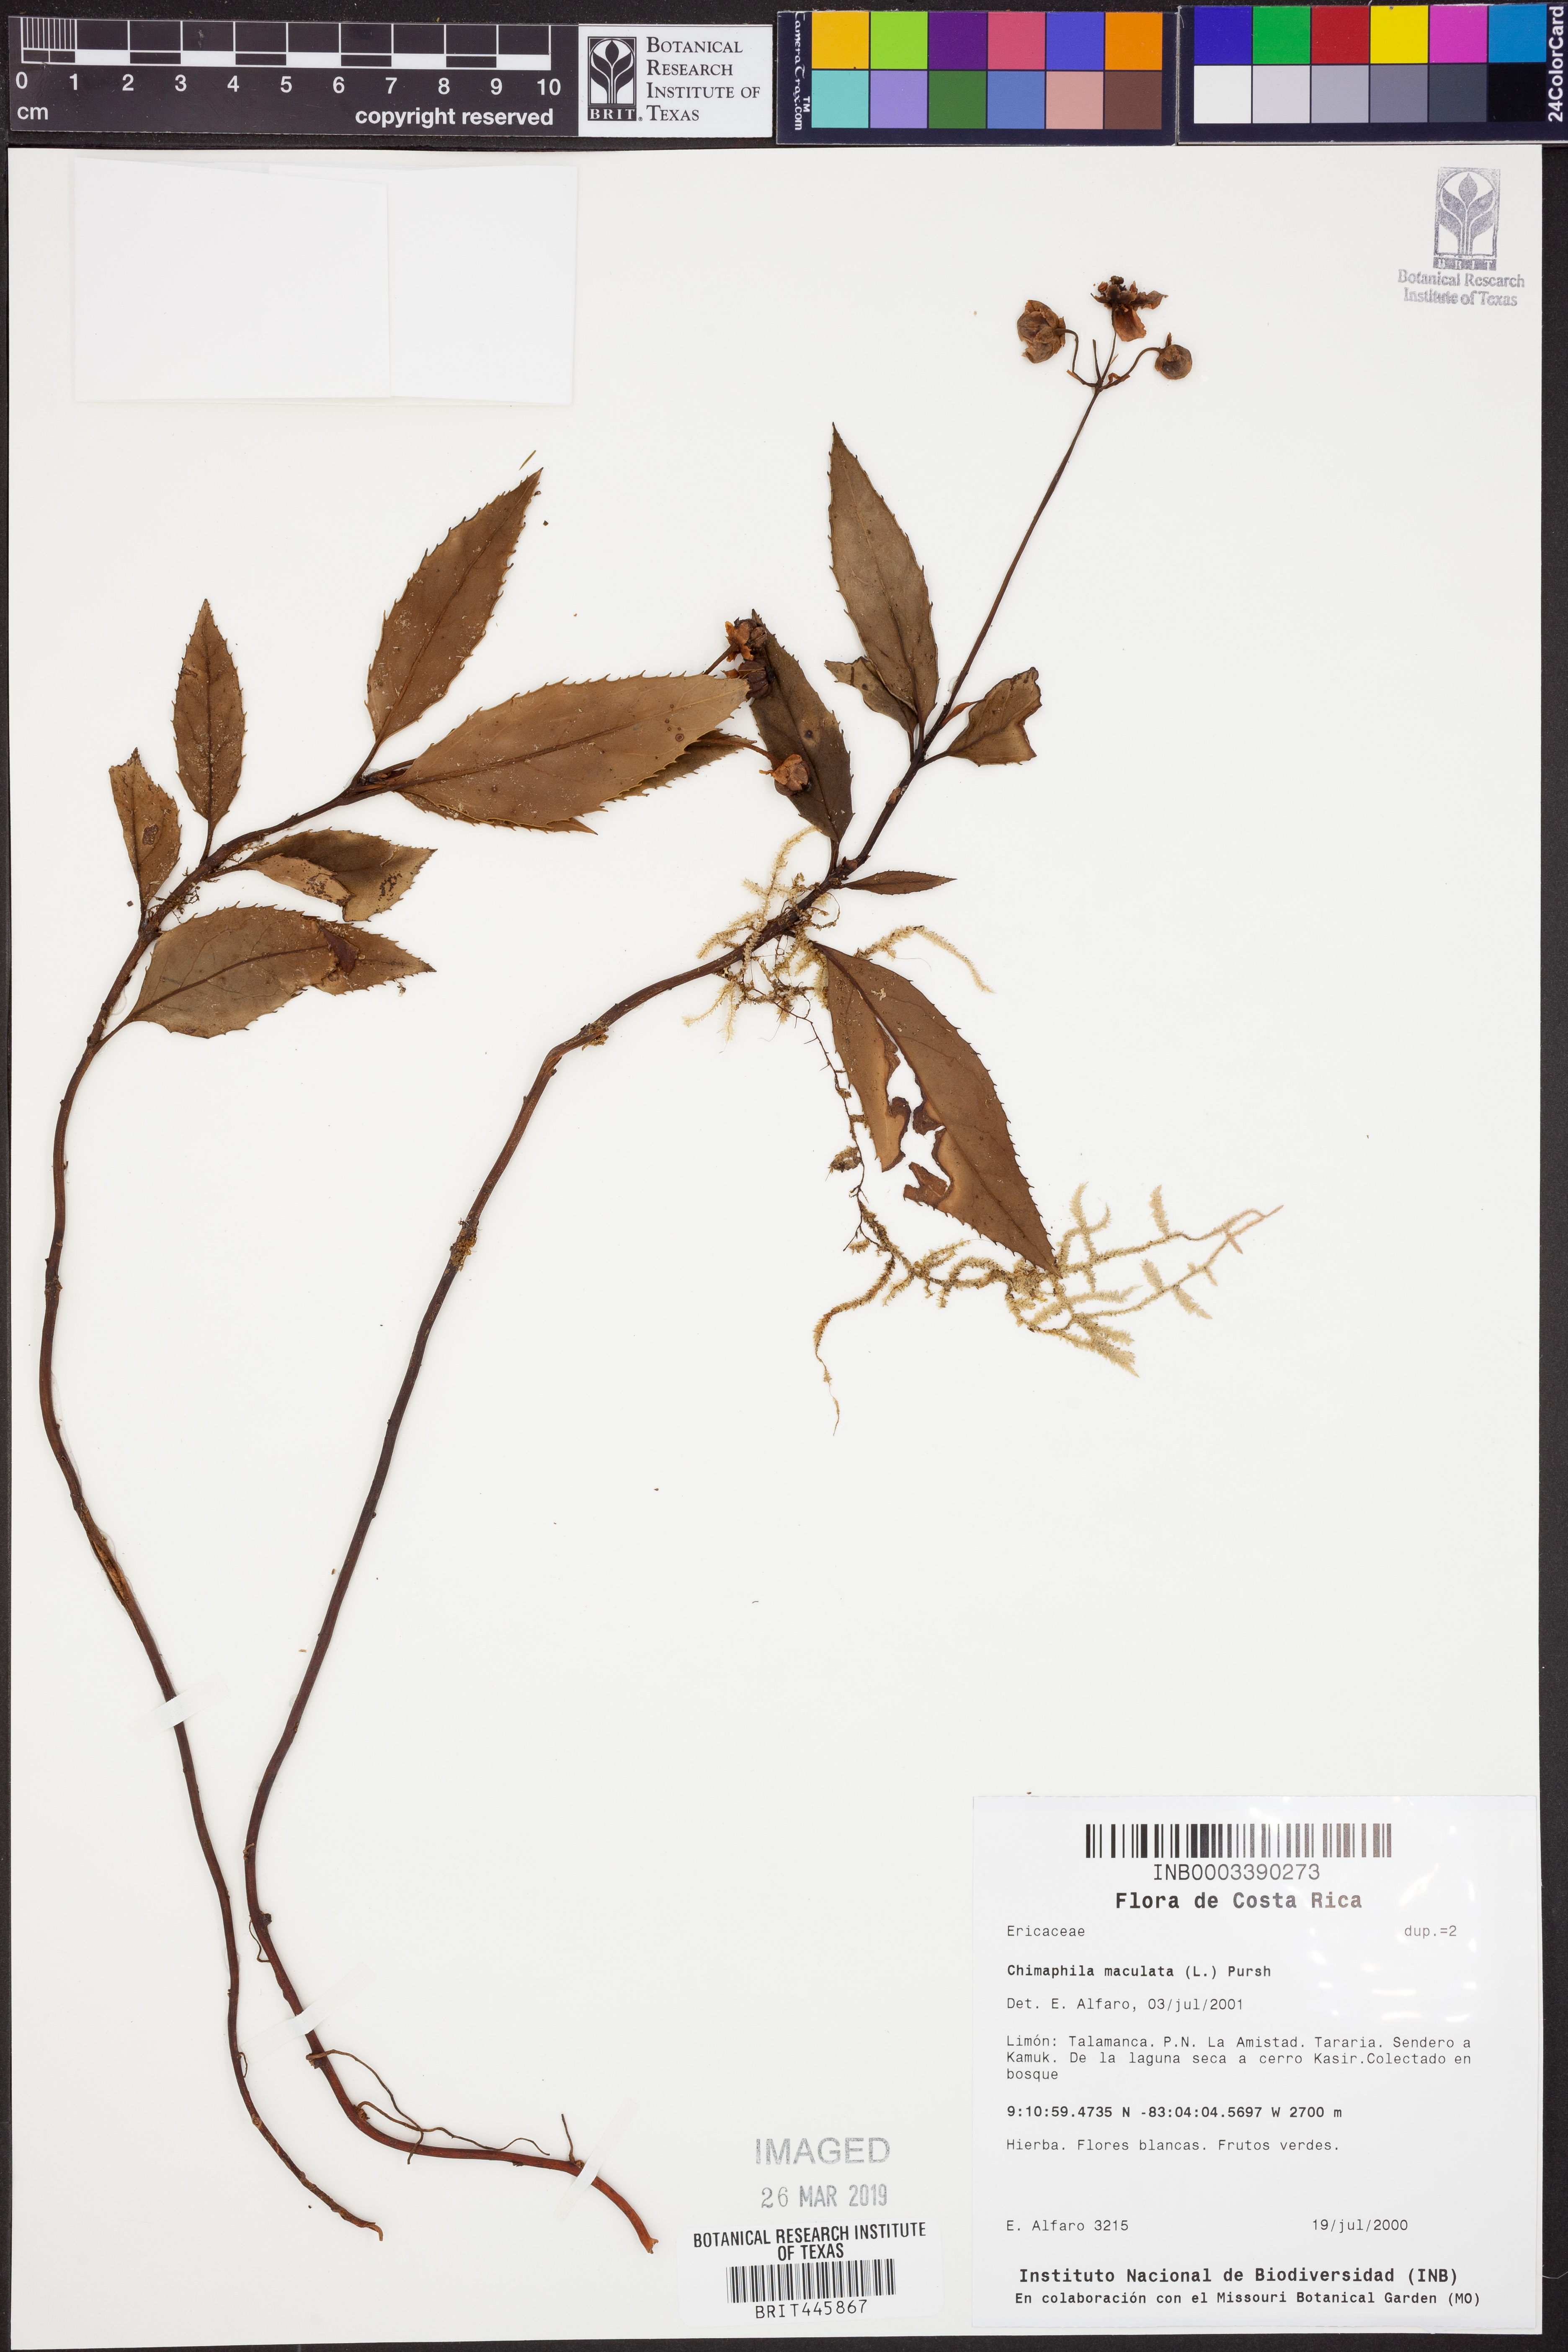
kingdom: Plantae
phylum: Tracheophyta
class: Magnoliopsida
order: Ericales
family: Ericaceae
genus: Chimaphila
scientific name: Chimaphila maculata
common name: Spotted pipsissewa
